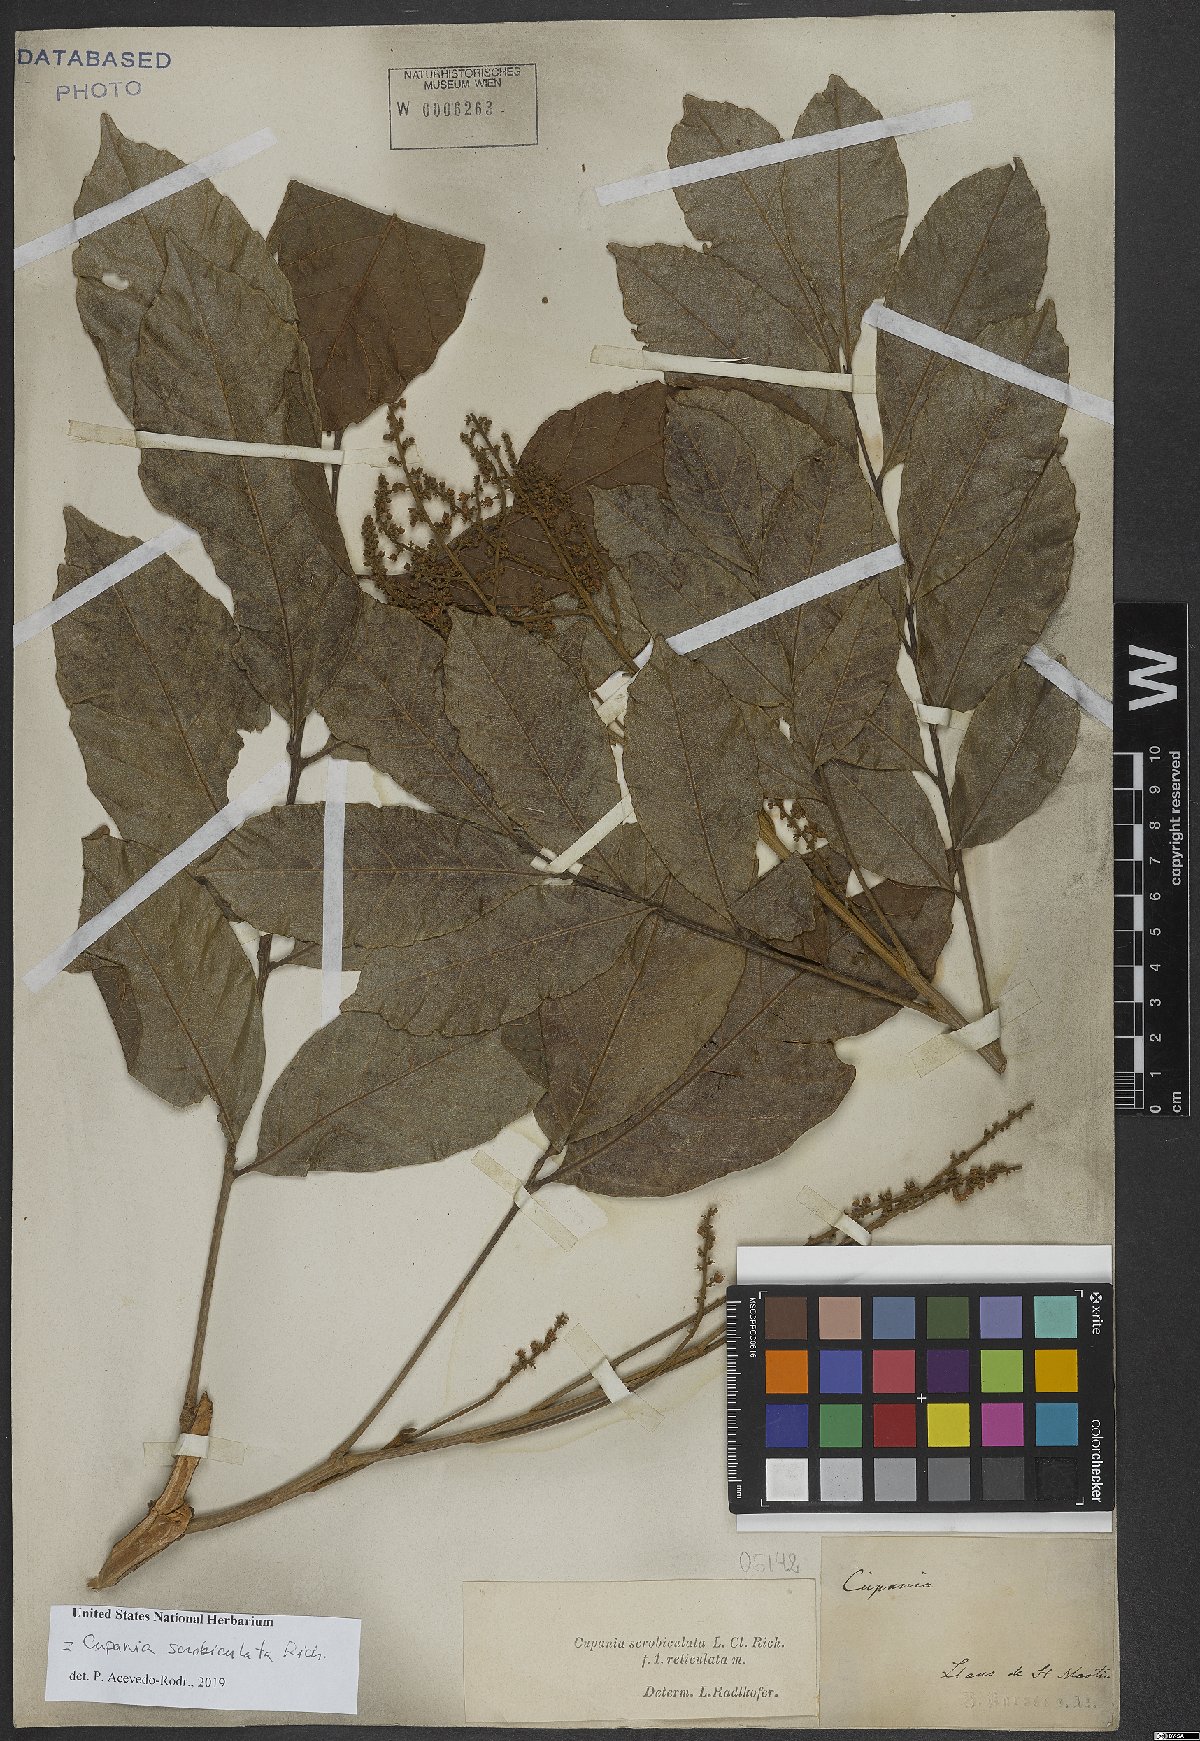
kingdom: Plantae
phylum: Tracheophyta
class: Magnoliopsida
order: Sapindales
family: Sapindaceae
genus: Cupania
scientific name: Cupania scrobiculata
